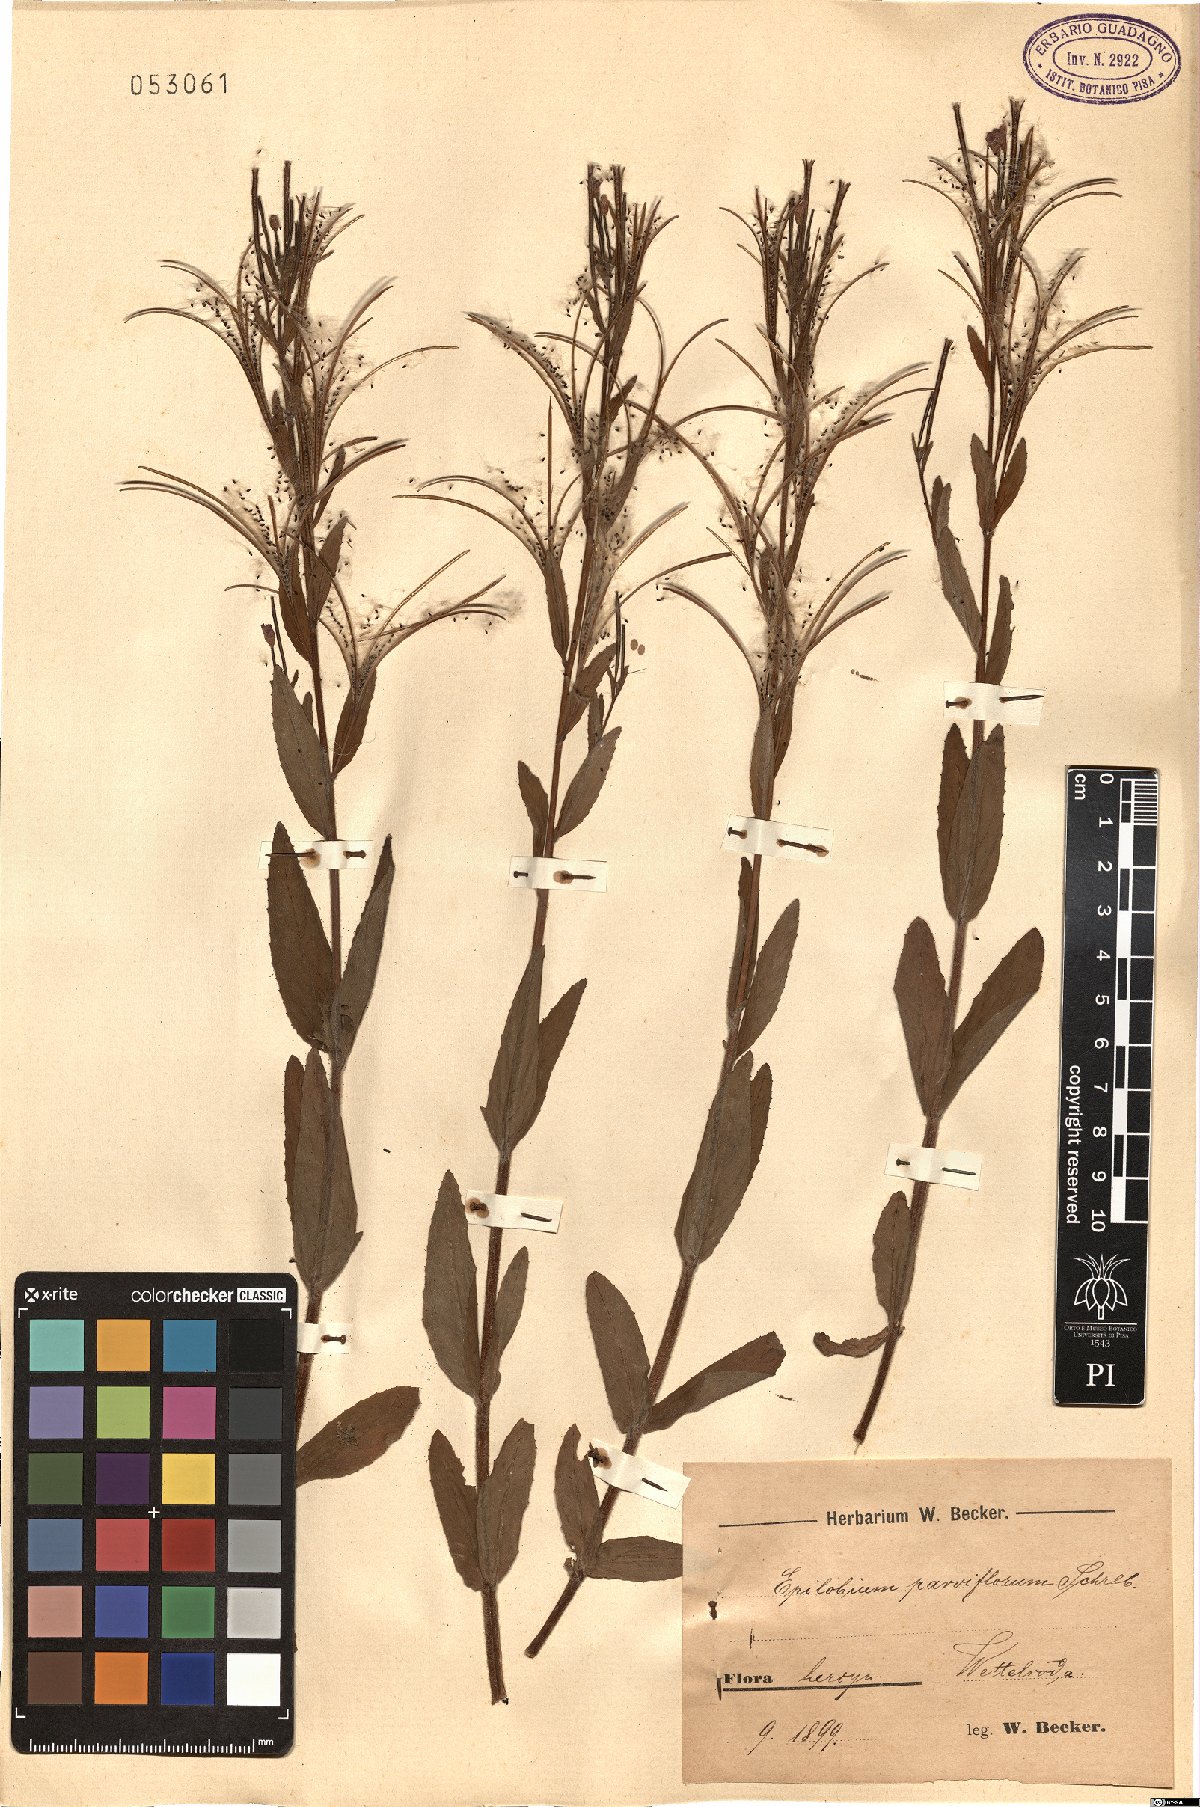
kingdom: Plantae
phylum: Tracheophyta
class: Magnoliopsida
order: Myrtales
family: Onagraceae
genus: Epilobium
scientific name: Epilobium parviflorum
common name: Hoary willowherb
